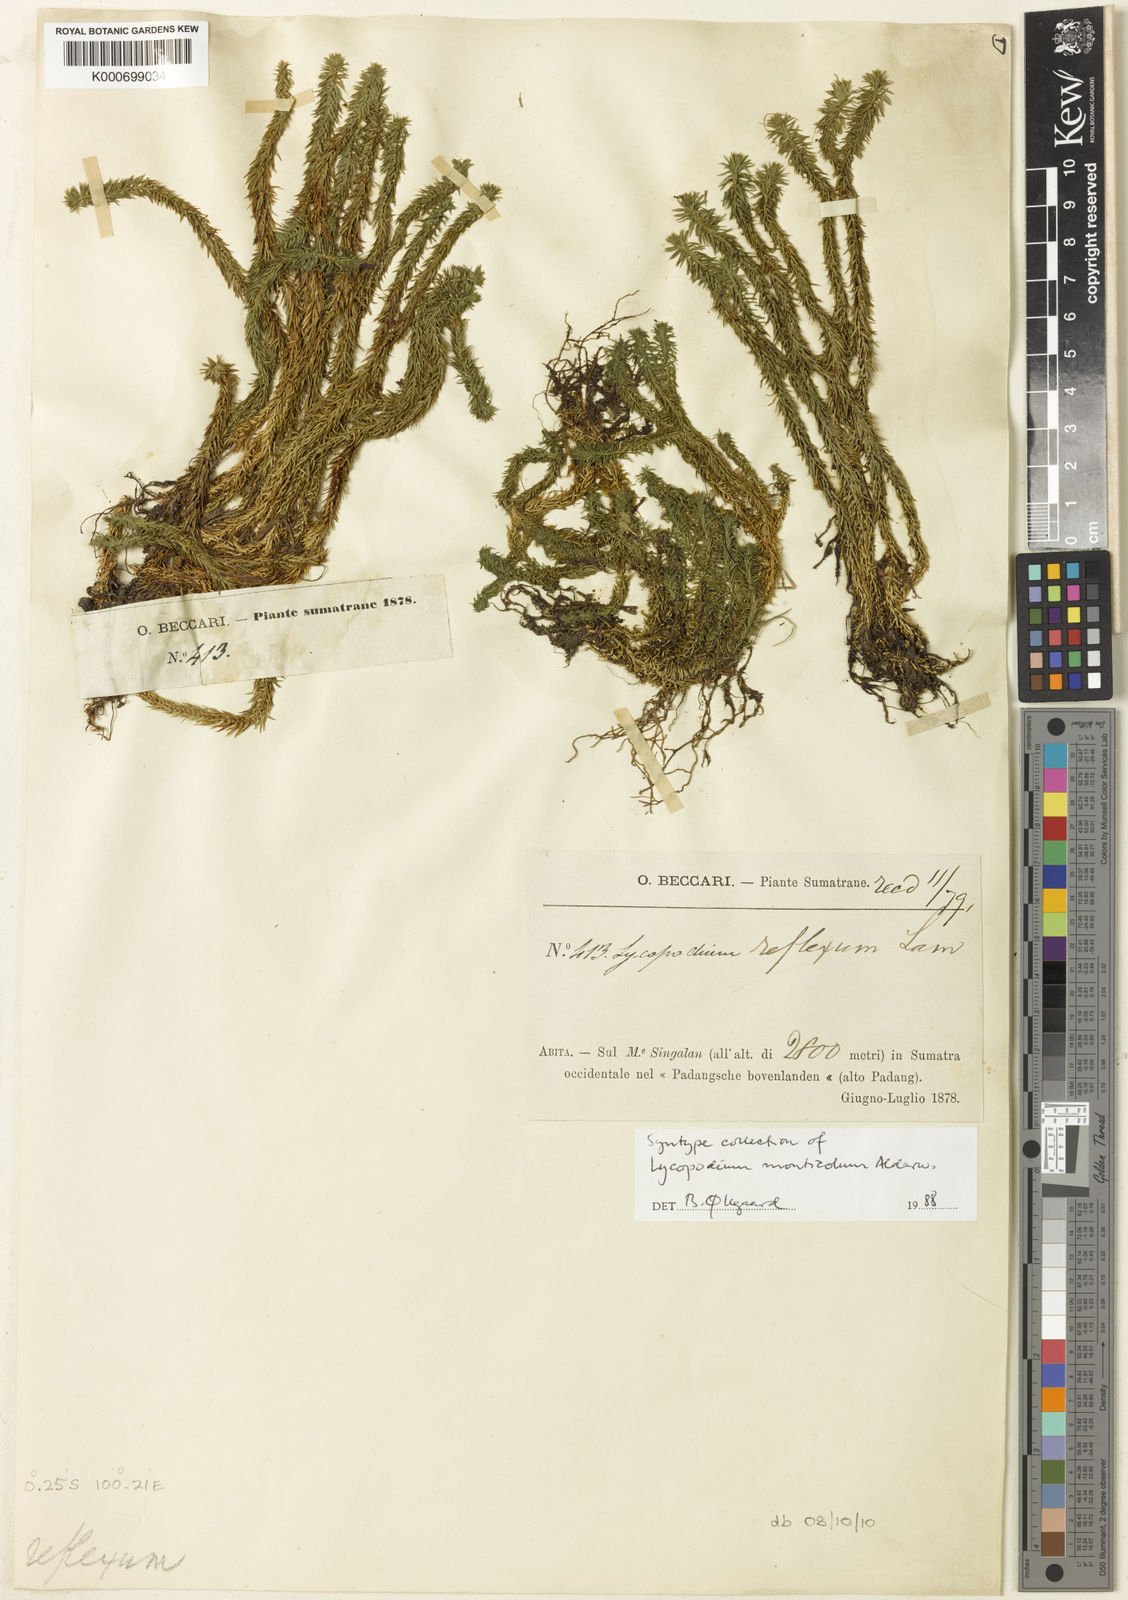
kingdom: Plantae
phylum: Tracheophyta
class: Lycopodiopsida
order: Lycopodiales
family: Lycopodiaceae
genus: Lycopodium
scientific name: Lycopodium
